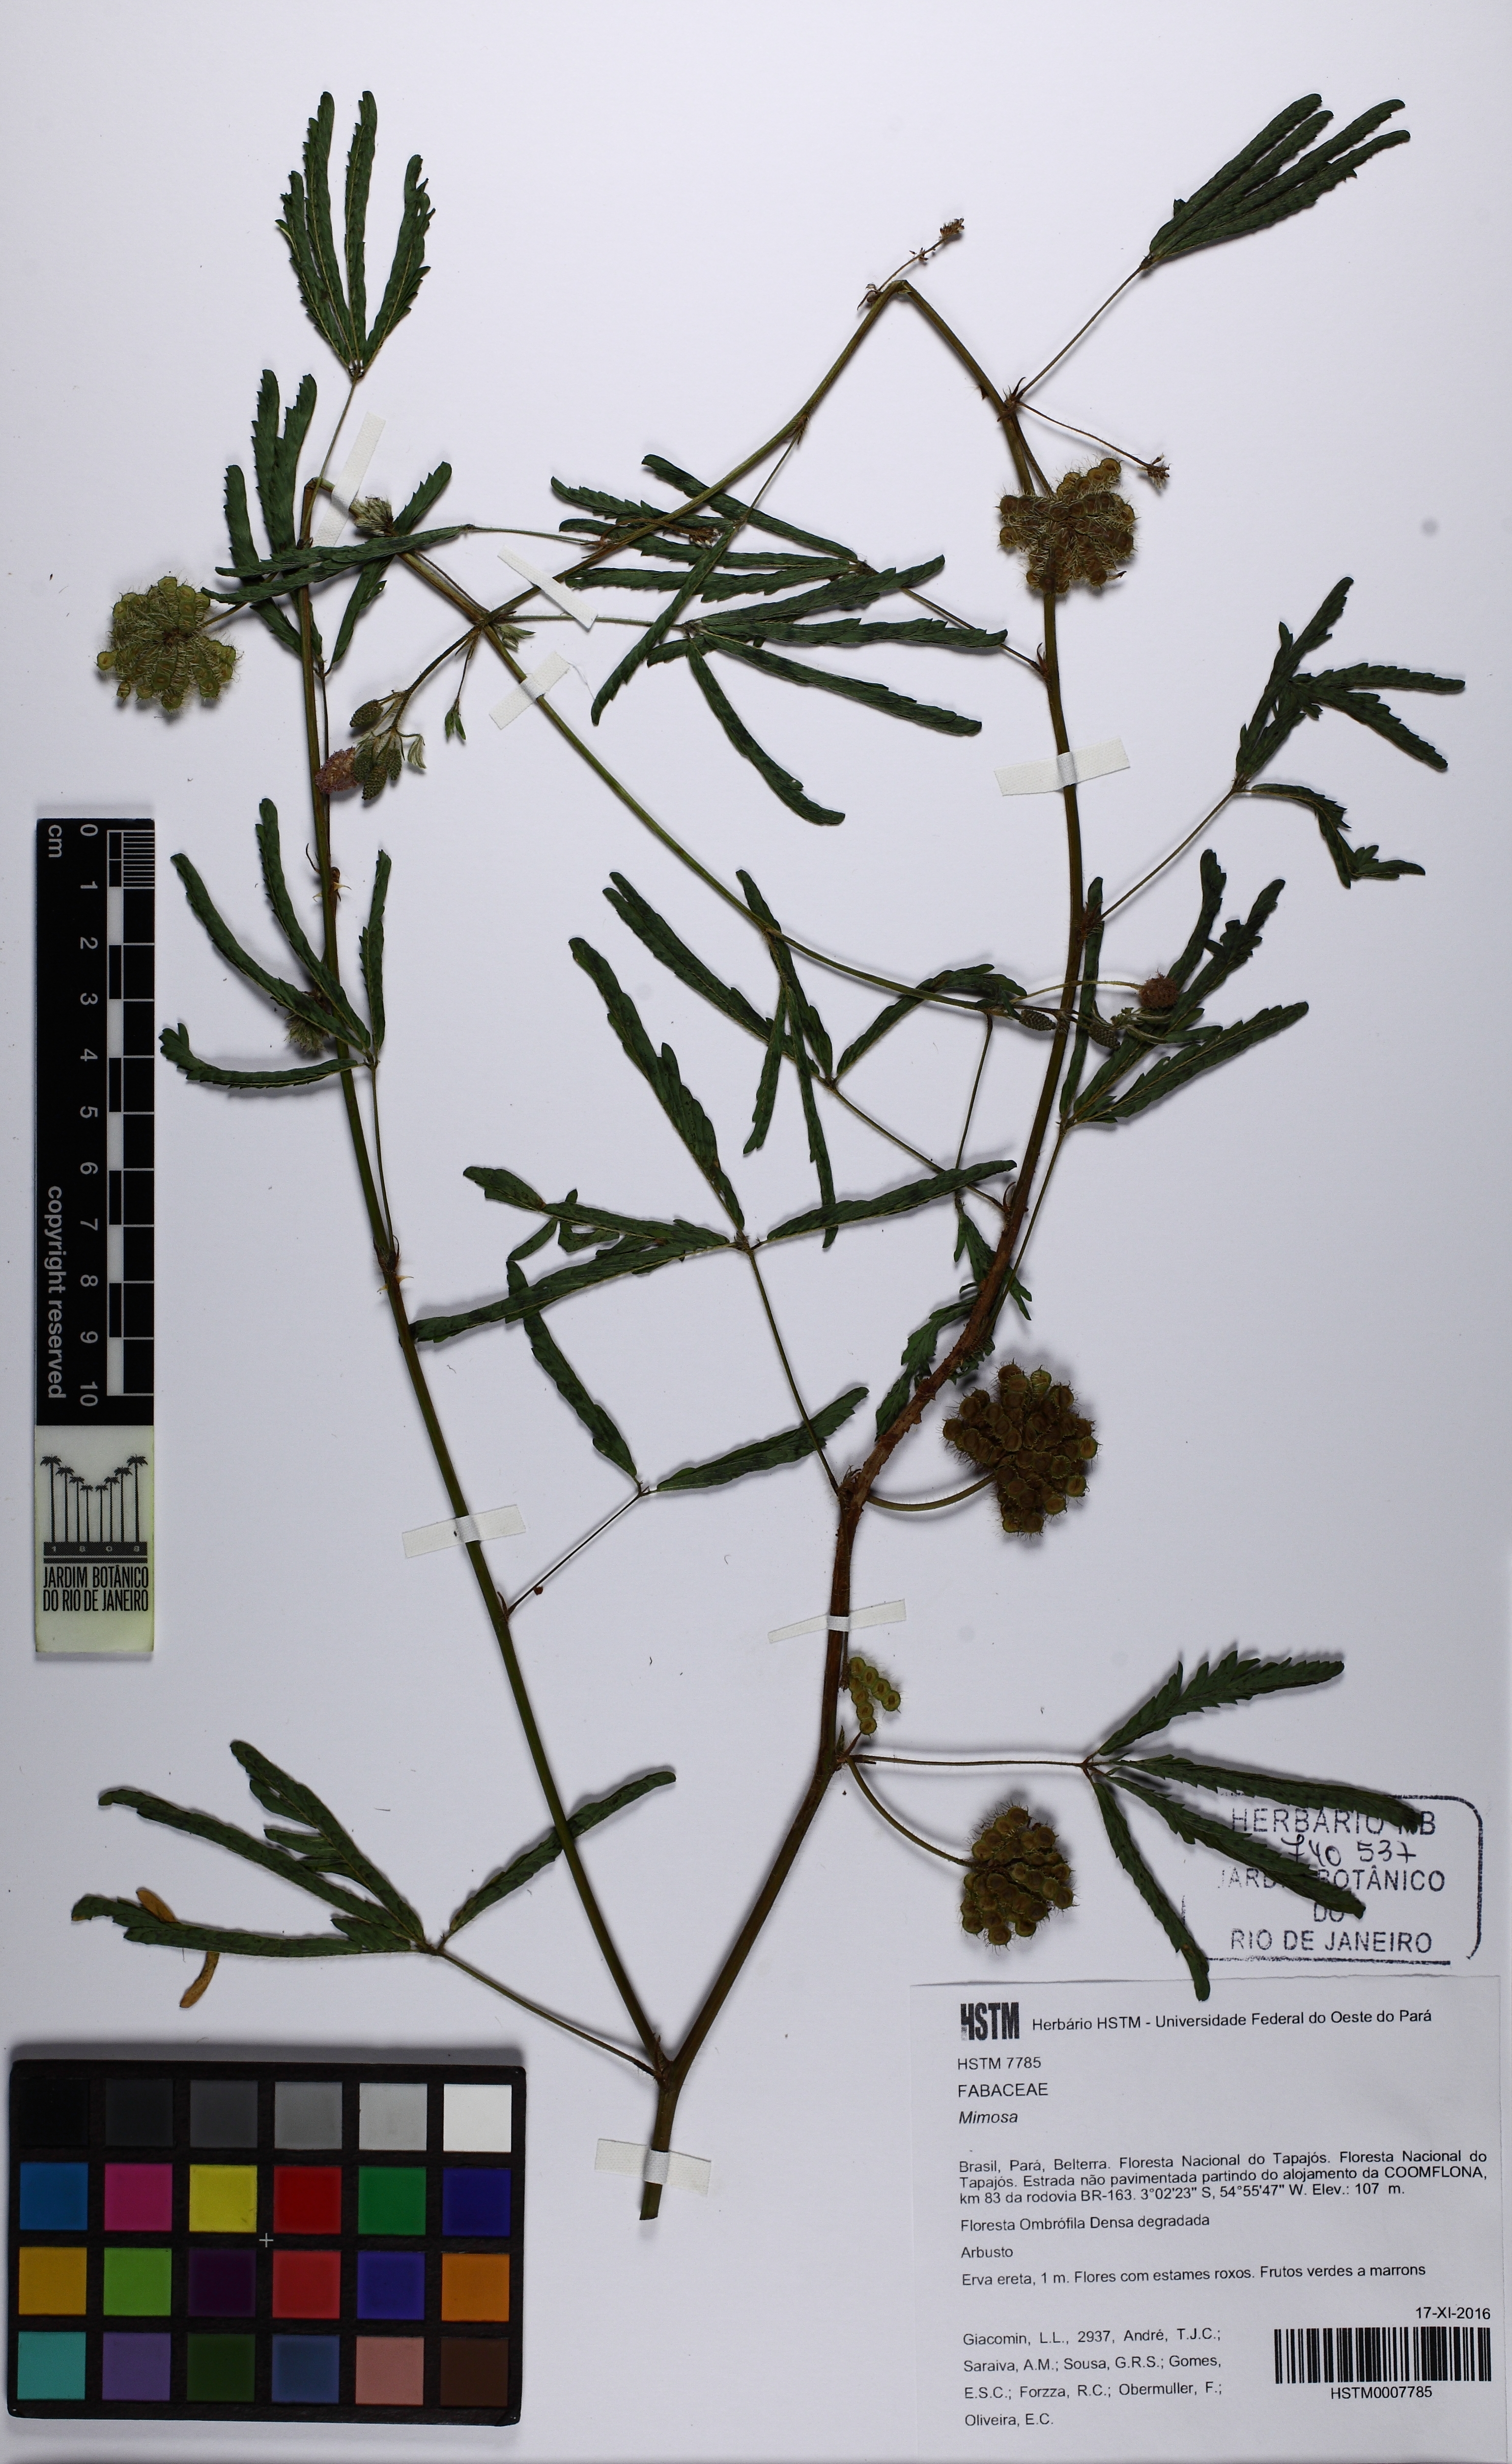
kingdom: Plantae
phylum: Tracheophyta
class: Magnoliopsida
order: Fabales
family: Fabaceae
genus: Mimosa
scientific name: Mimosa pudica
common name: Sensitive plant
